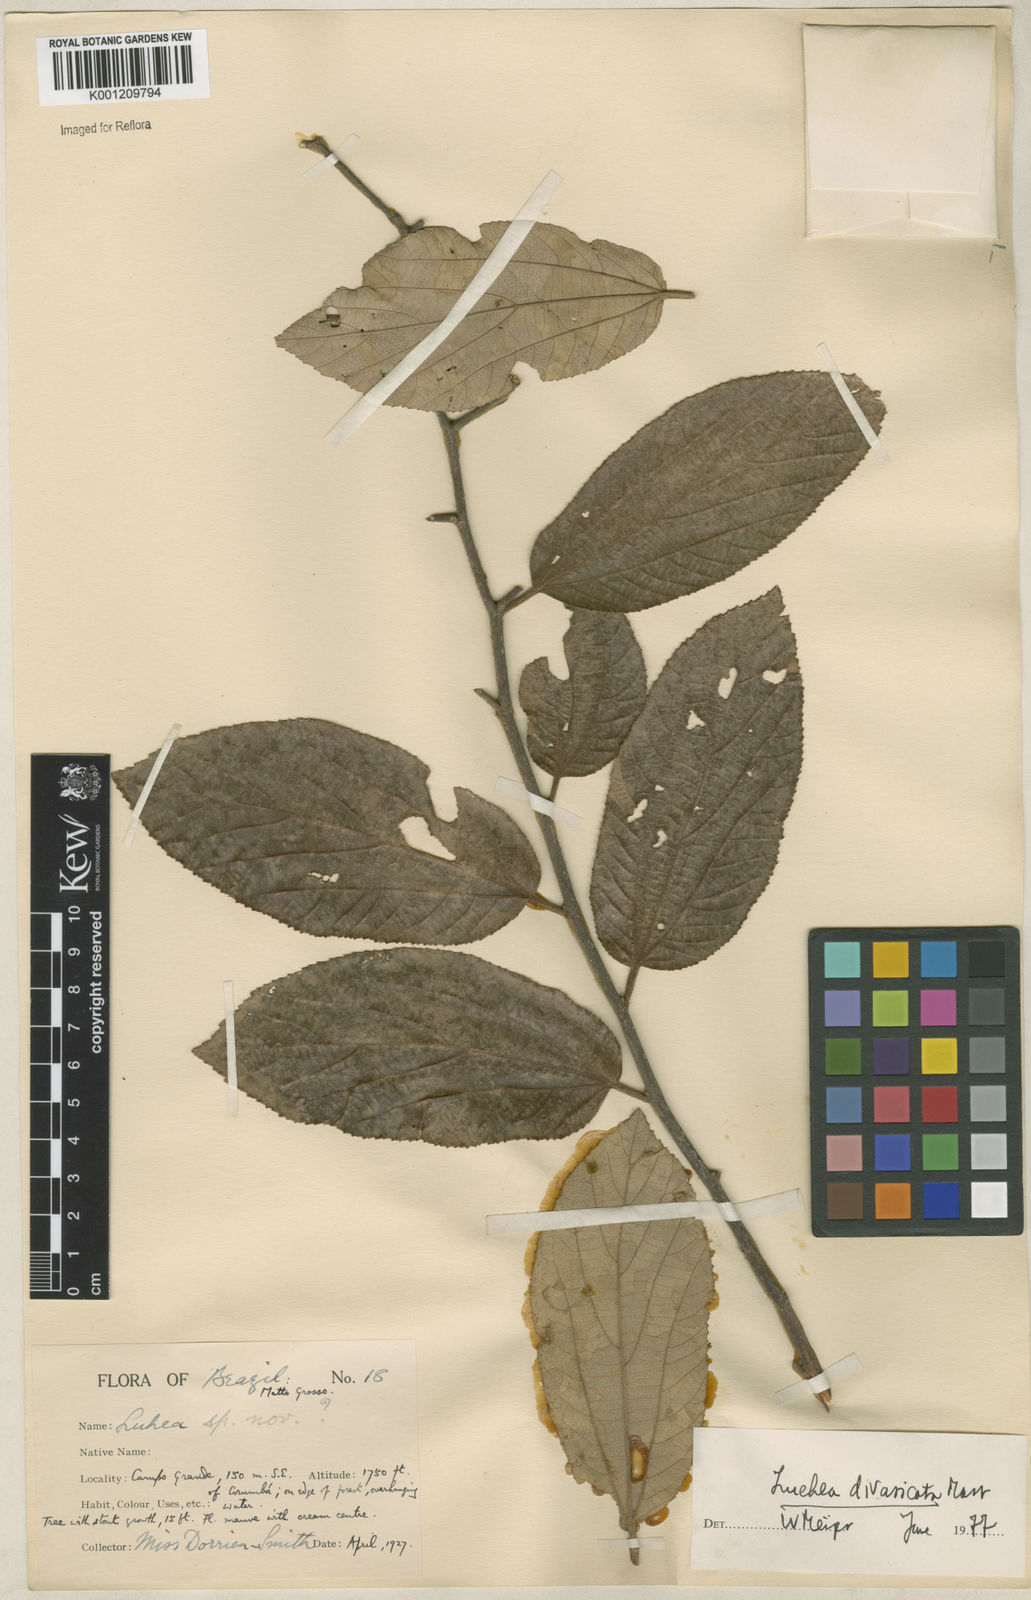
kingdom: Plantae
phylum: Tracheophyta
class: Magnoliopsida
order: Malvales
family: Malvaceae
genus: Luehea
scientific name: Luehea divaricata
